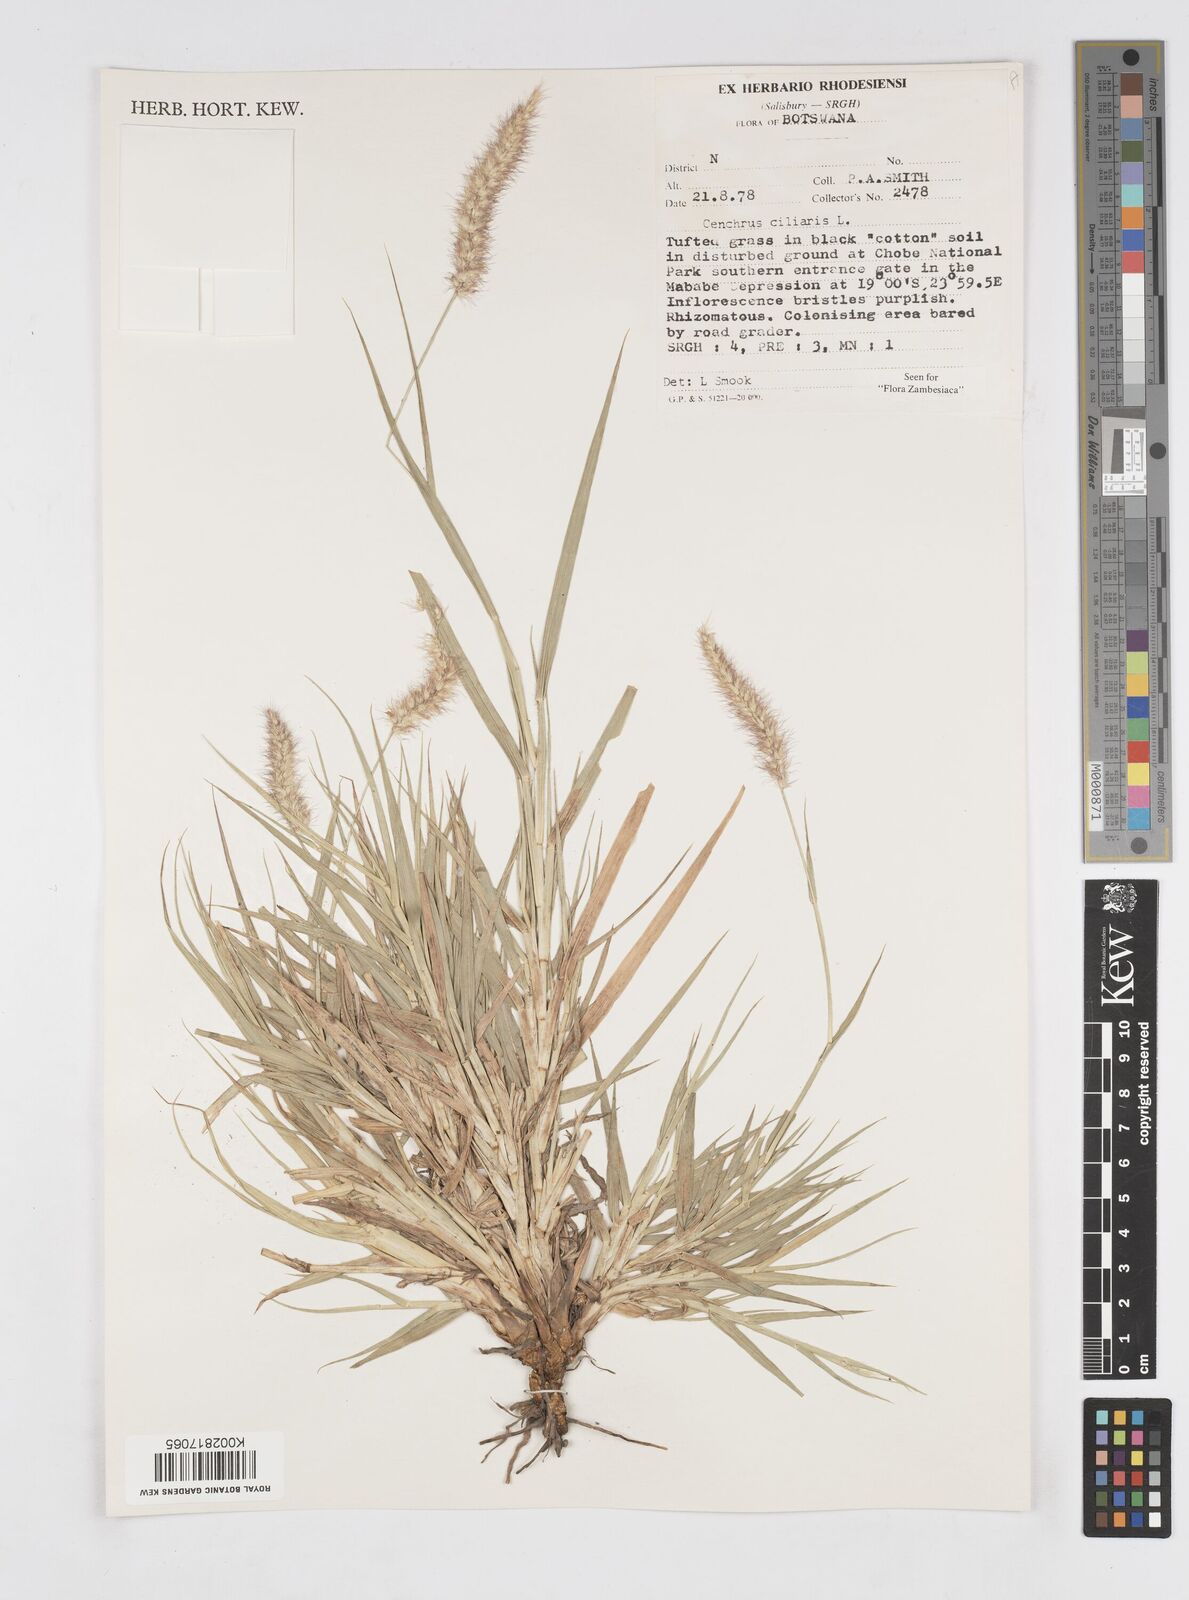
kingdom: Plantae
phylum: Tracheophyta
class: Liliopsida
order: Poales
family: Poaceae
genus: Cenchrus
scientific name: Cenchrus ciliaris
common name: Buffelgrass
